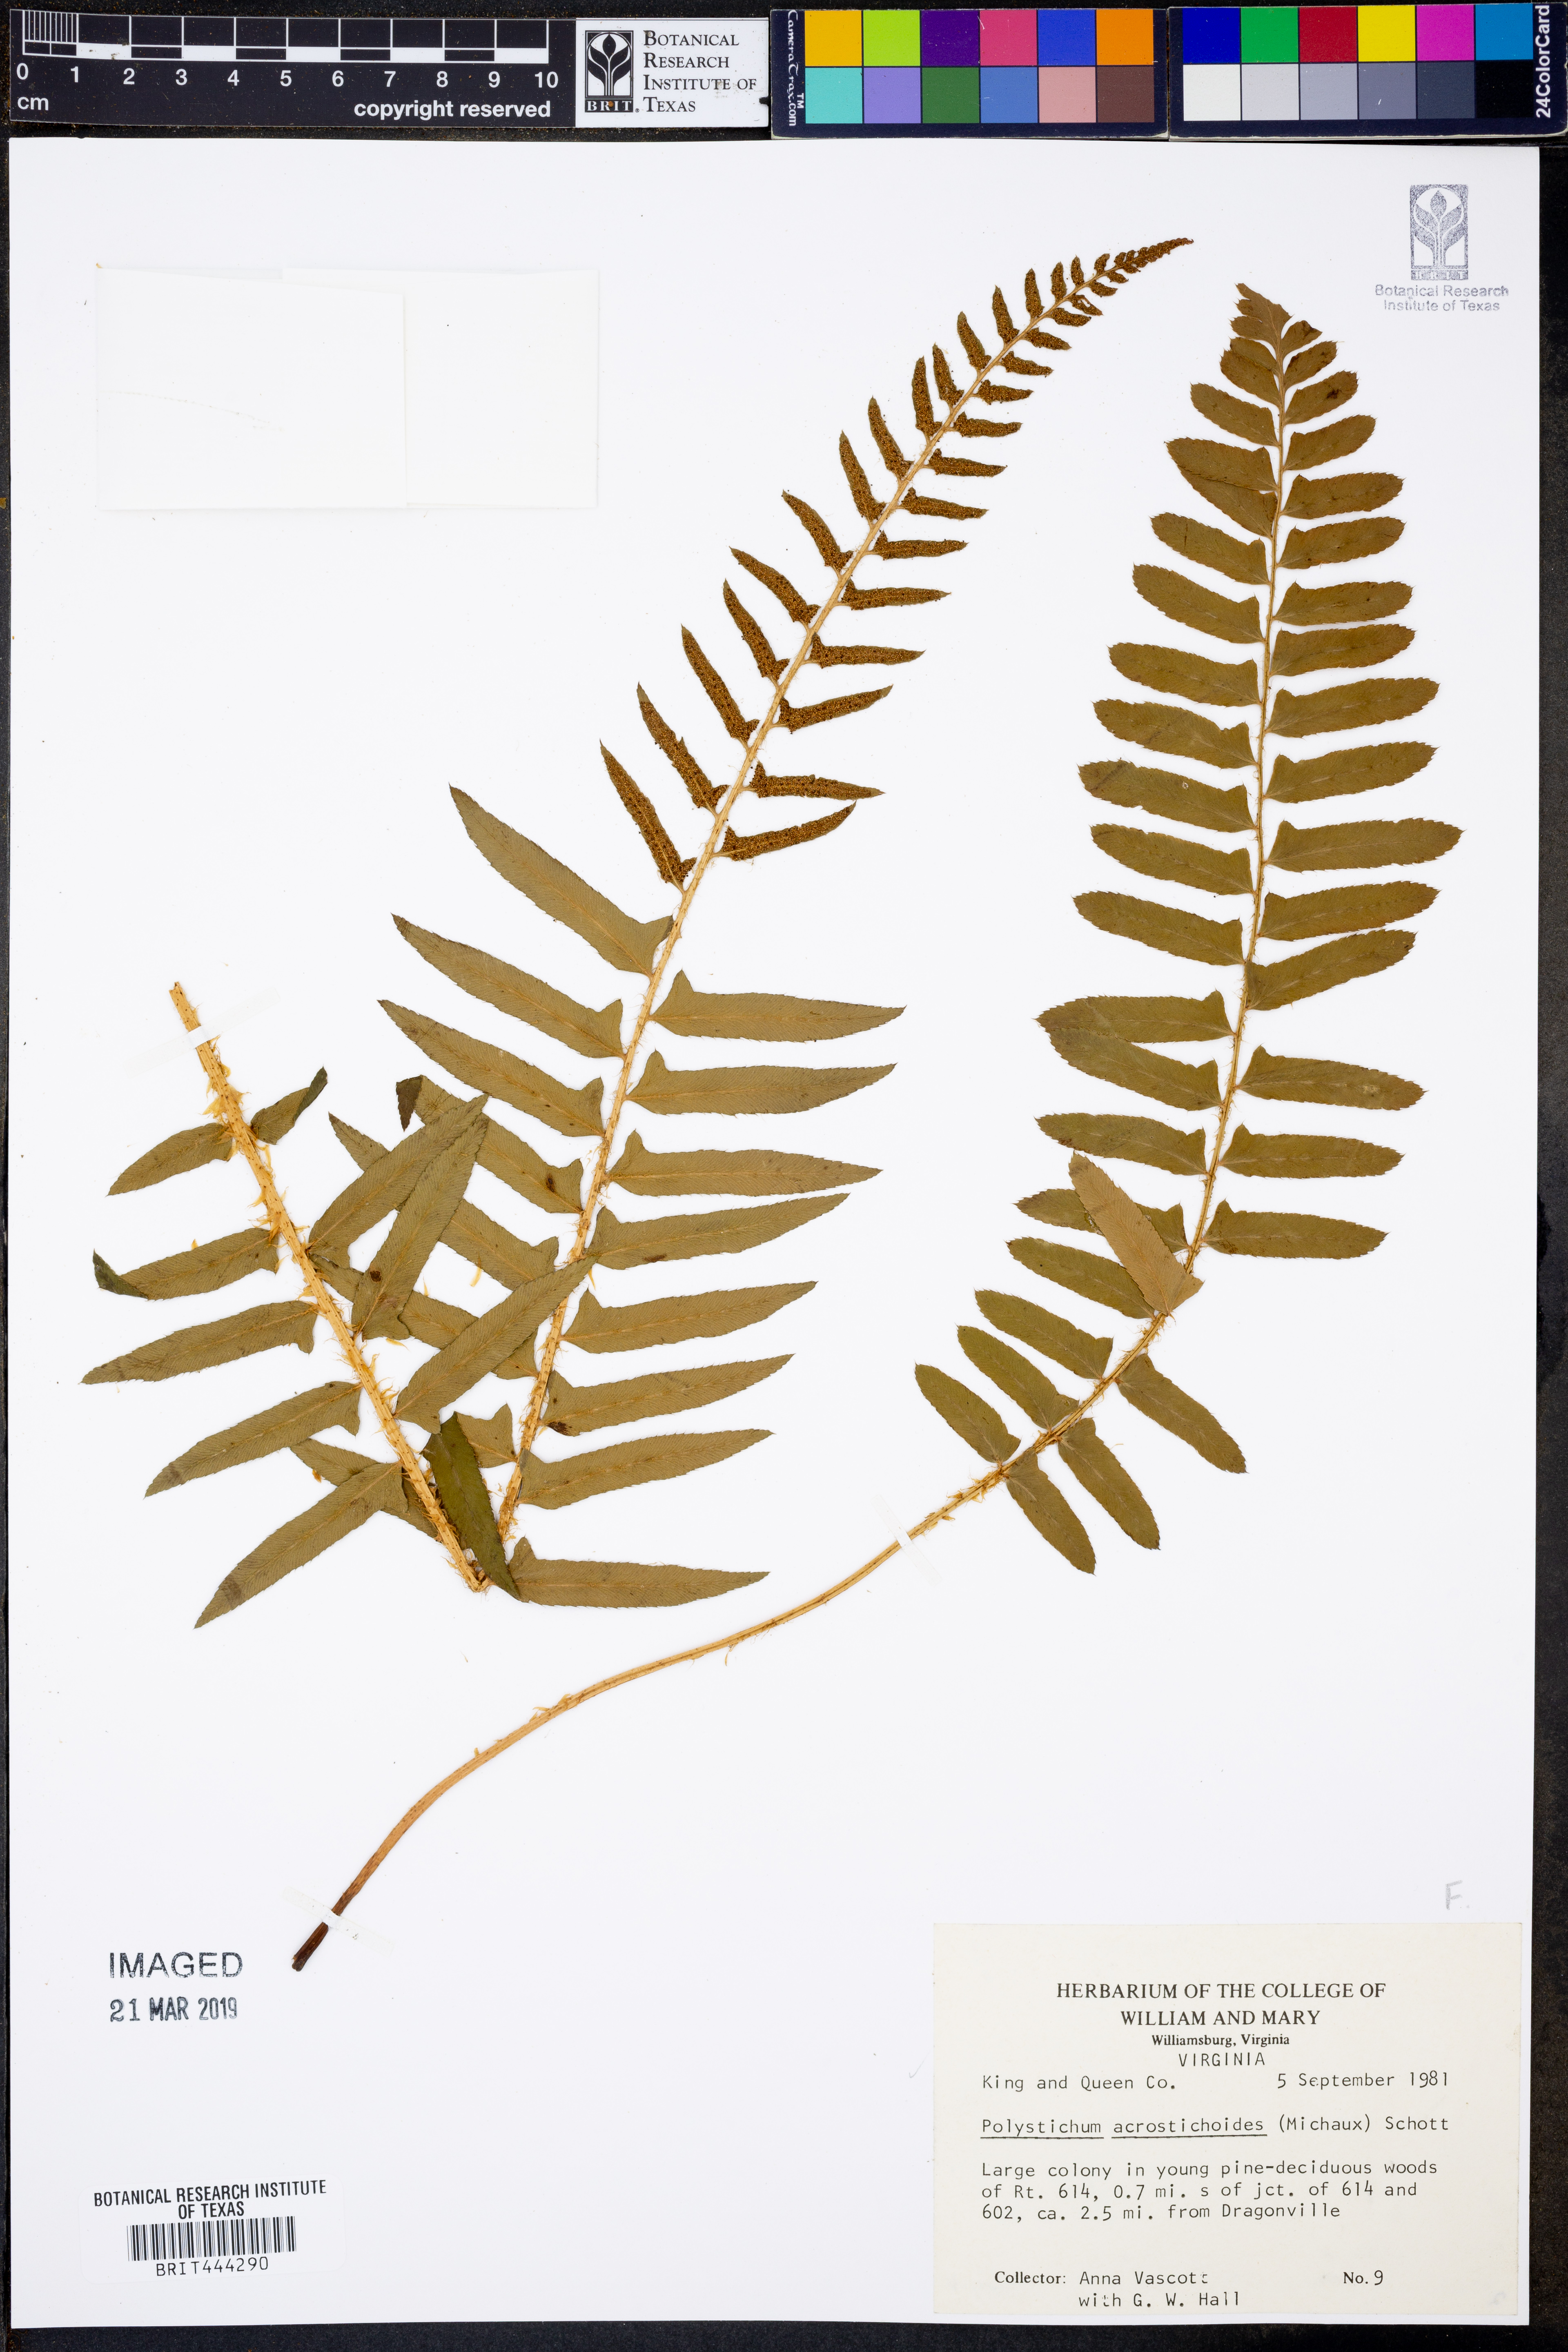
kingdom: Plantae
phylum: Tracheophyta
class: Polypodiopsida
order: Polypodiales
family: Dryopteridaceae
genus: Polystichum
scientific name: Polystichum acrostichoides
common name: Christmas fern
